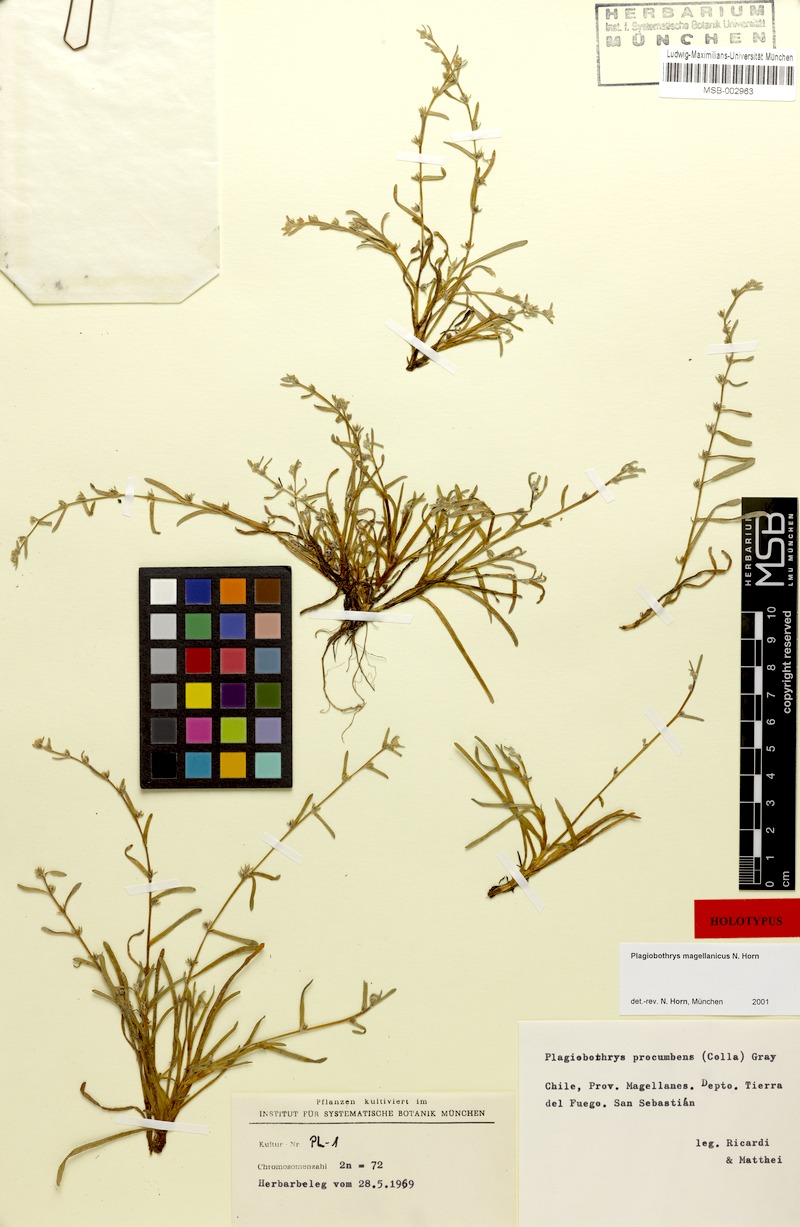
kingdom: Plantae
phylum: Tracheophyta
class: Magnoliopsida
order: Boraginales
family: Boraginaceae
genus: Plagiobothrys
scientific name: Plagiobothrys
